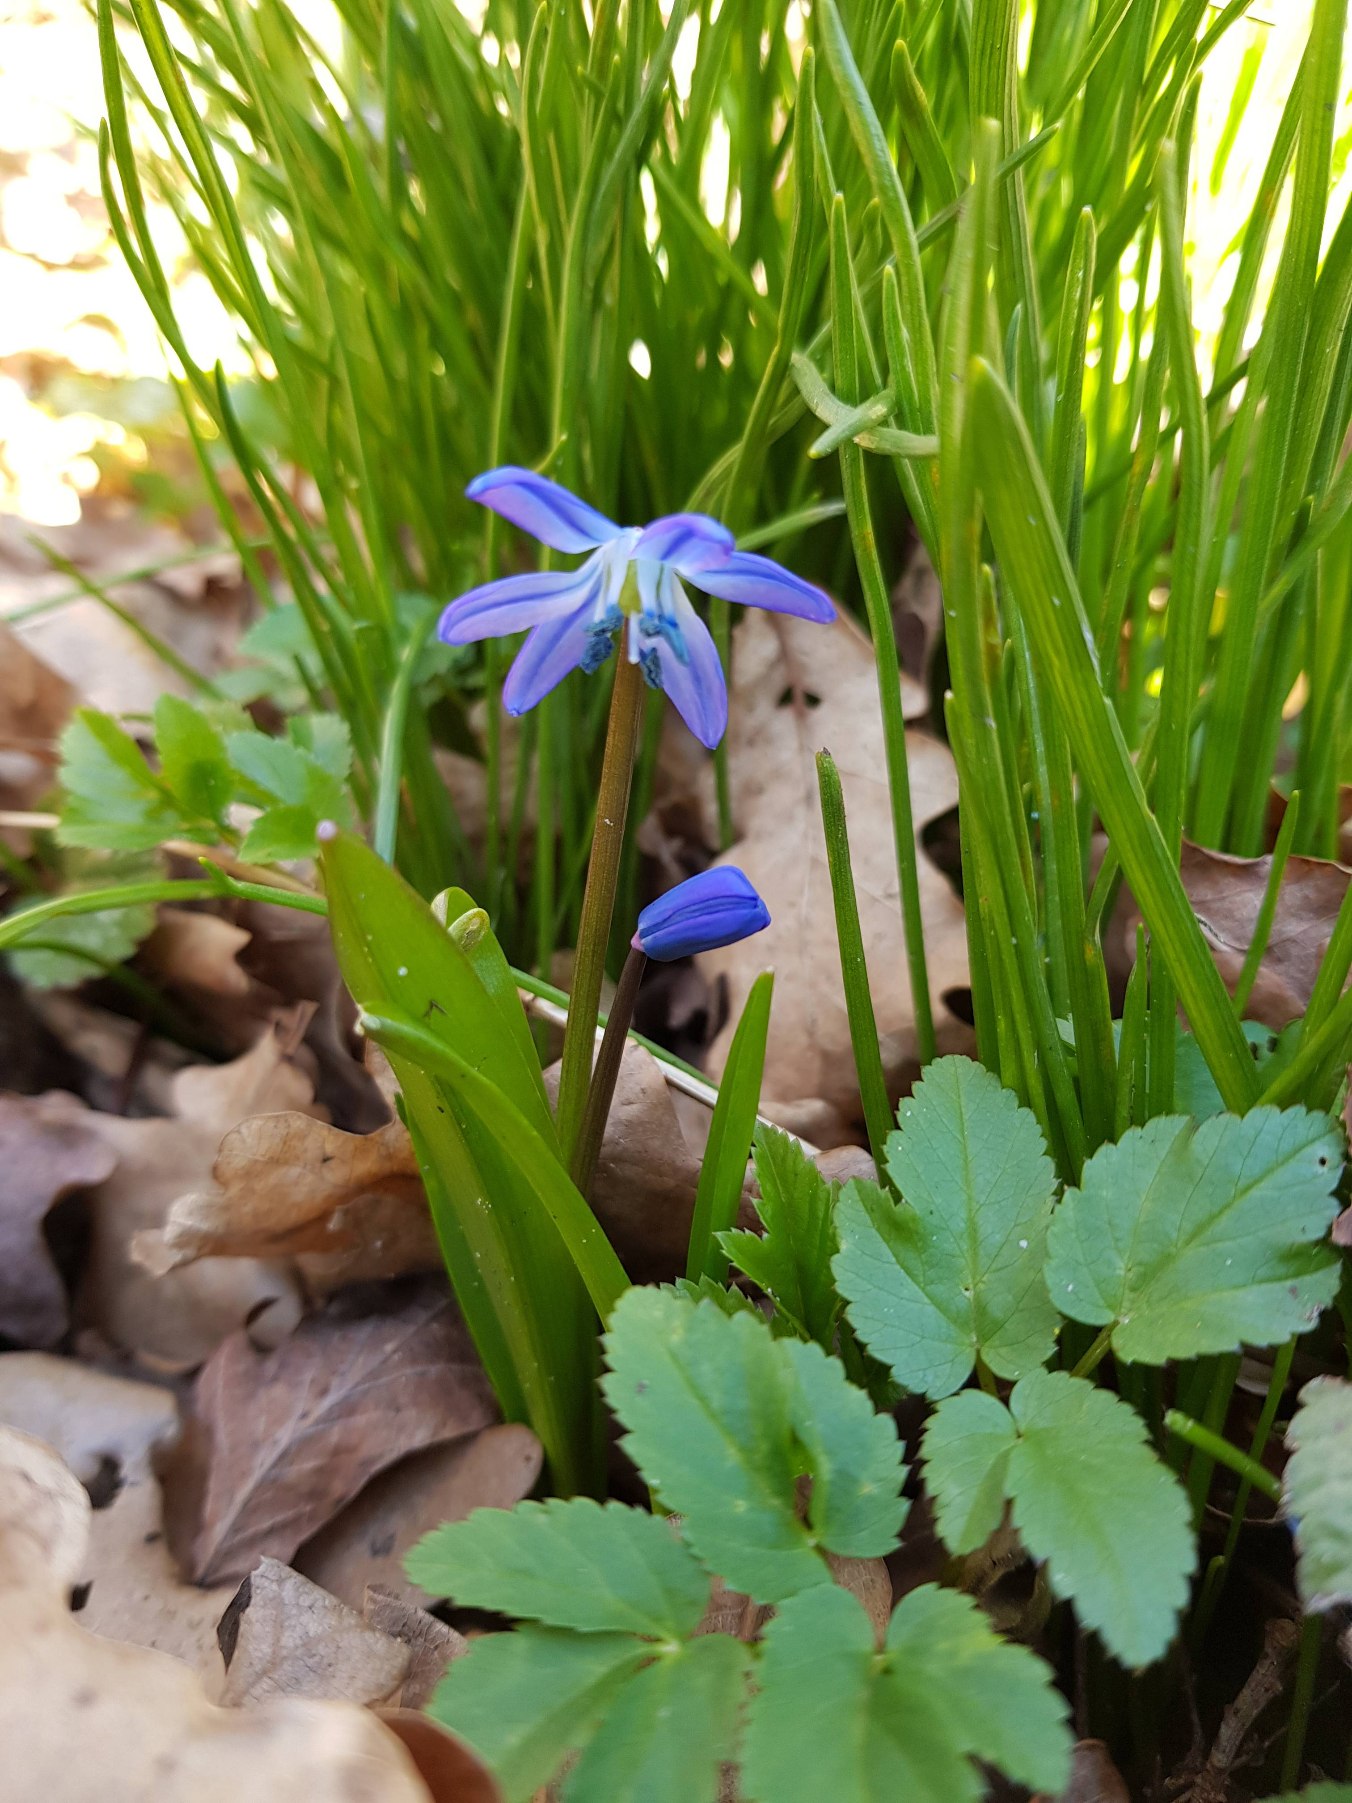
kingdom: Plantae
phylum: Tracheophyta
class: Liliopsida
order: Asparagales
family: Asparagaceae
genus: Scilla
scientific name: Scilla siberica
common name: Russisk skilla
